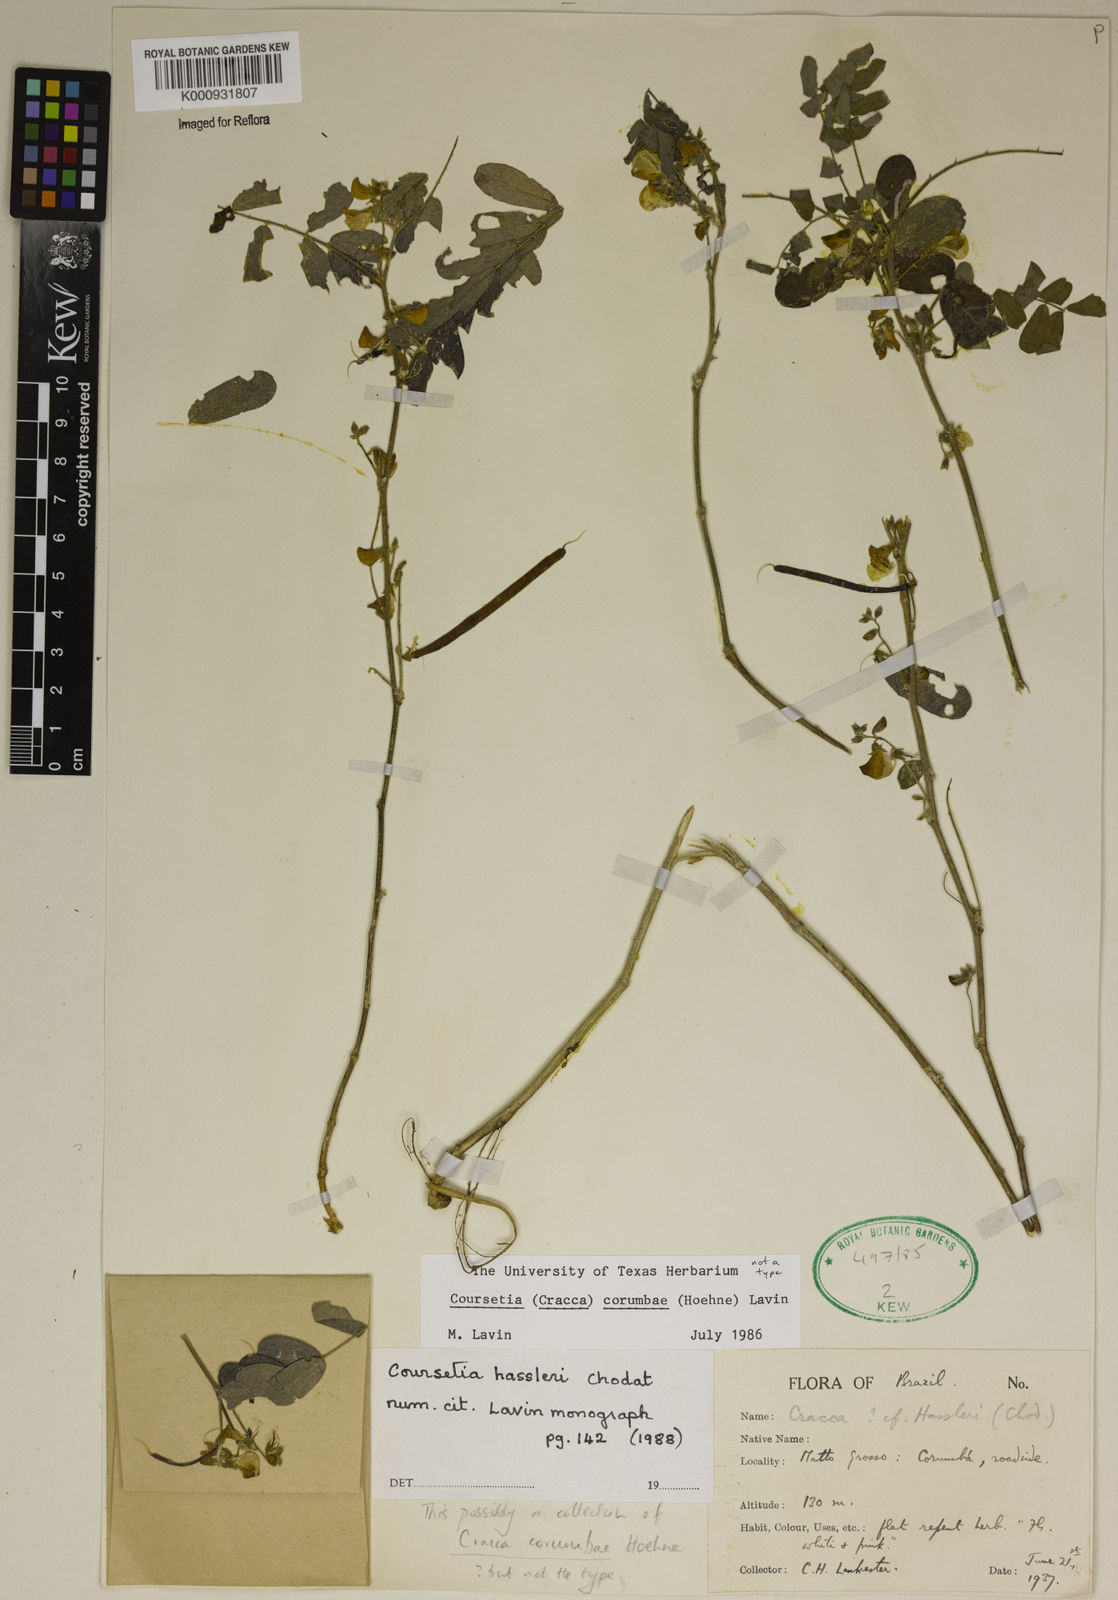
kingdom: Plantae
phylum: Tracheophyta
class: Magnoliopsida
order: Fabales
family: Fabaceae
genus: Coursetia
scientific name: Coursetia hassleri
